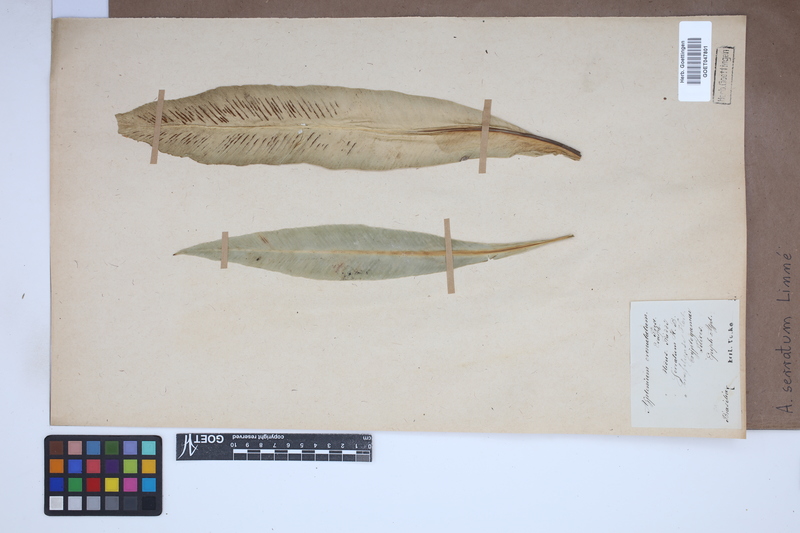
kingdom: Plantae
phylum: Tracheophyta
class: Polypodiopsida
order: Polypodiales
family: Aspleniaceae
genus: Asplenium
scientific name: Asplenium serratum
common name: Wild birdnest fern
